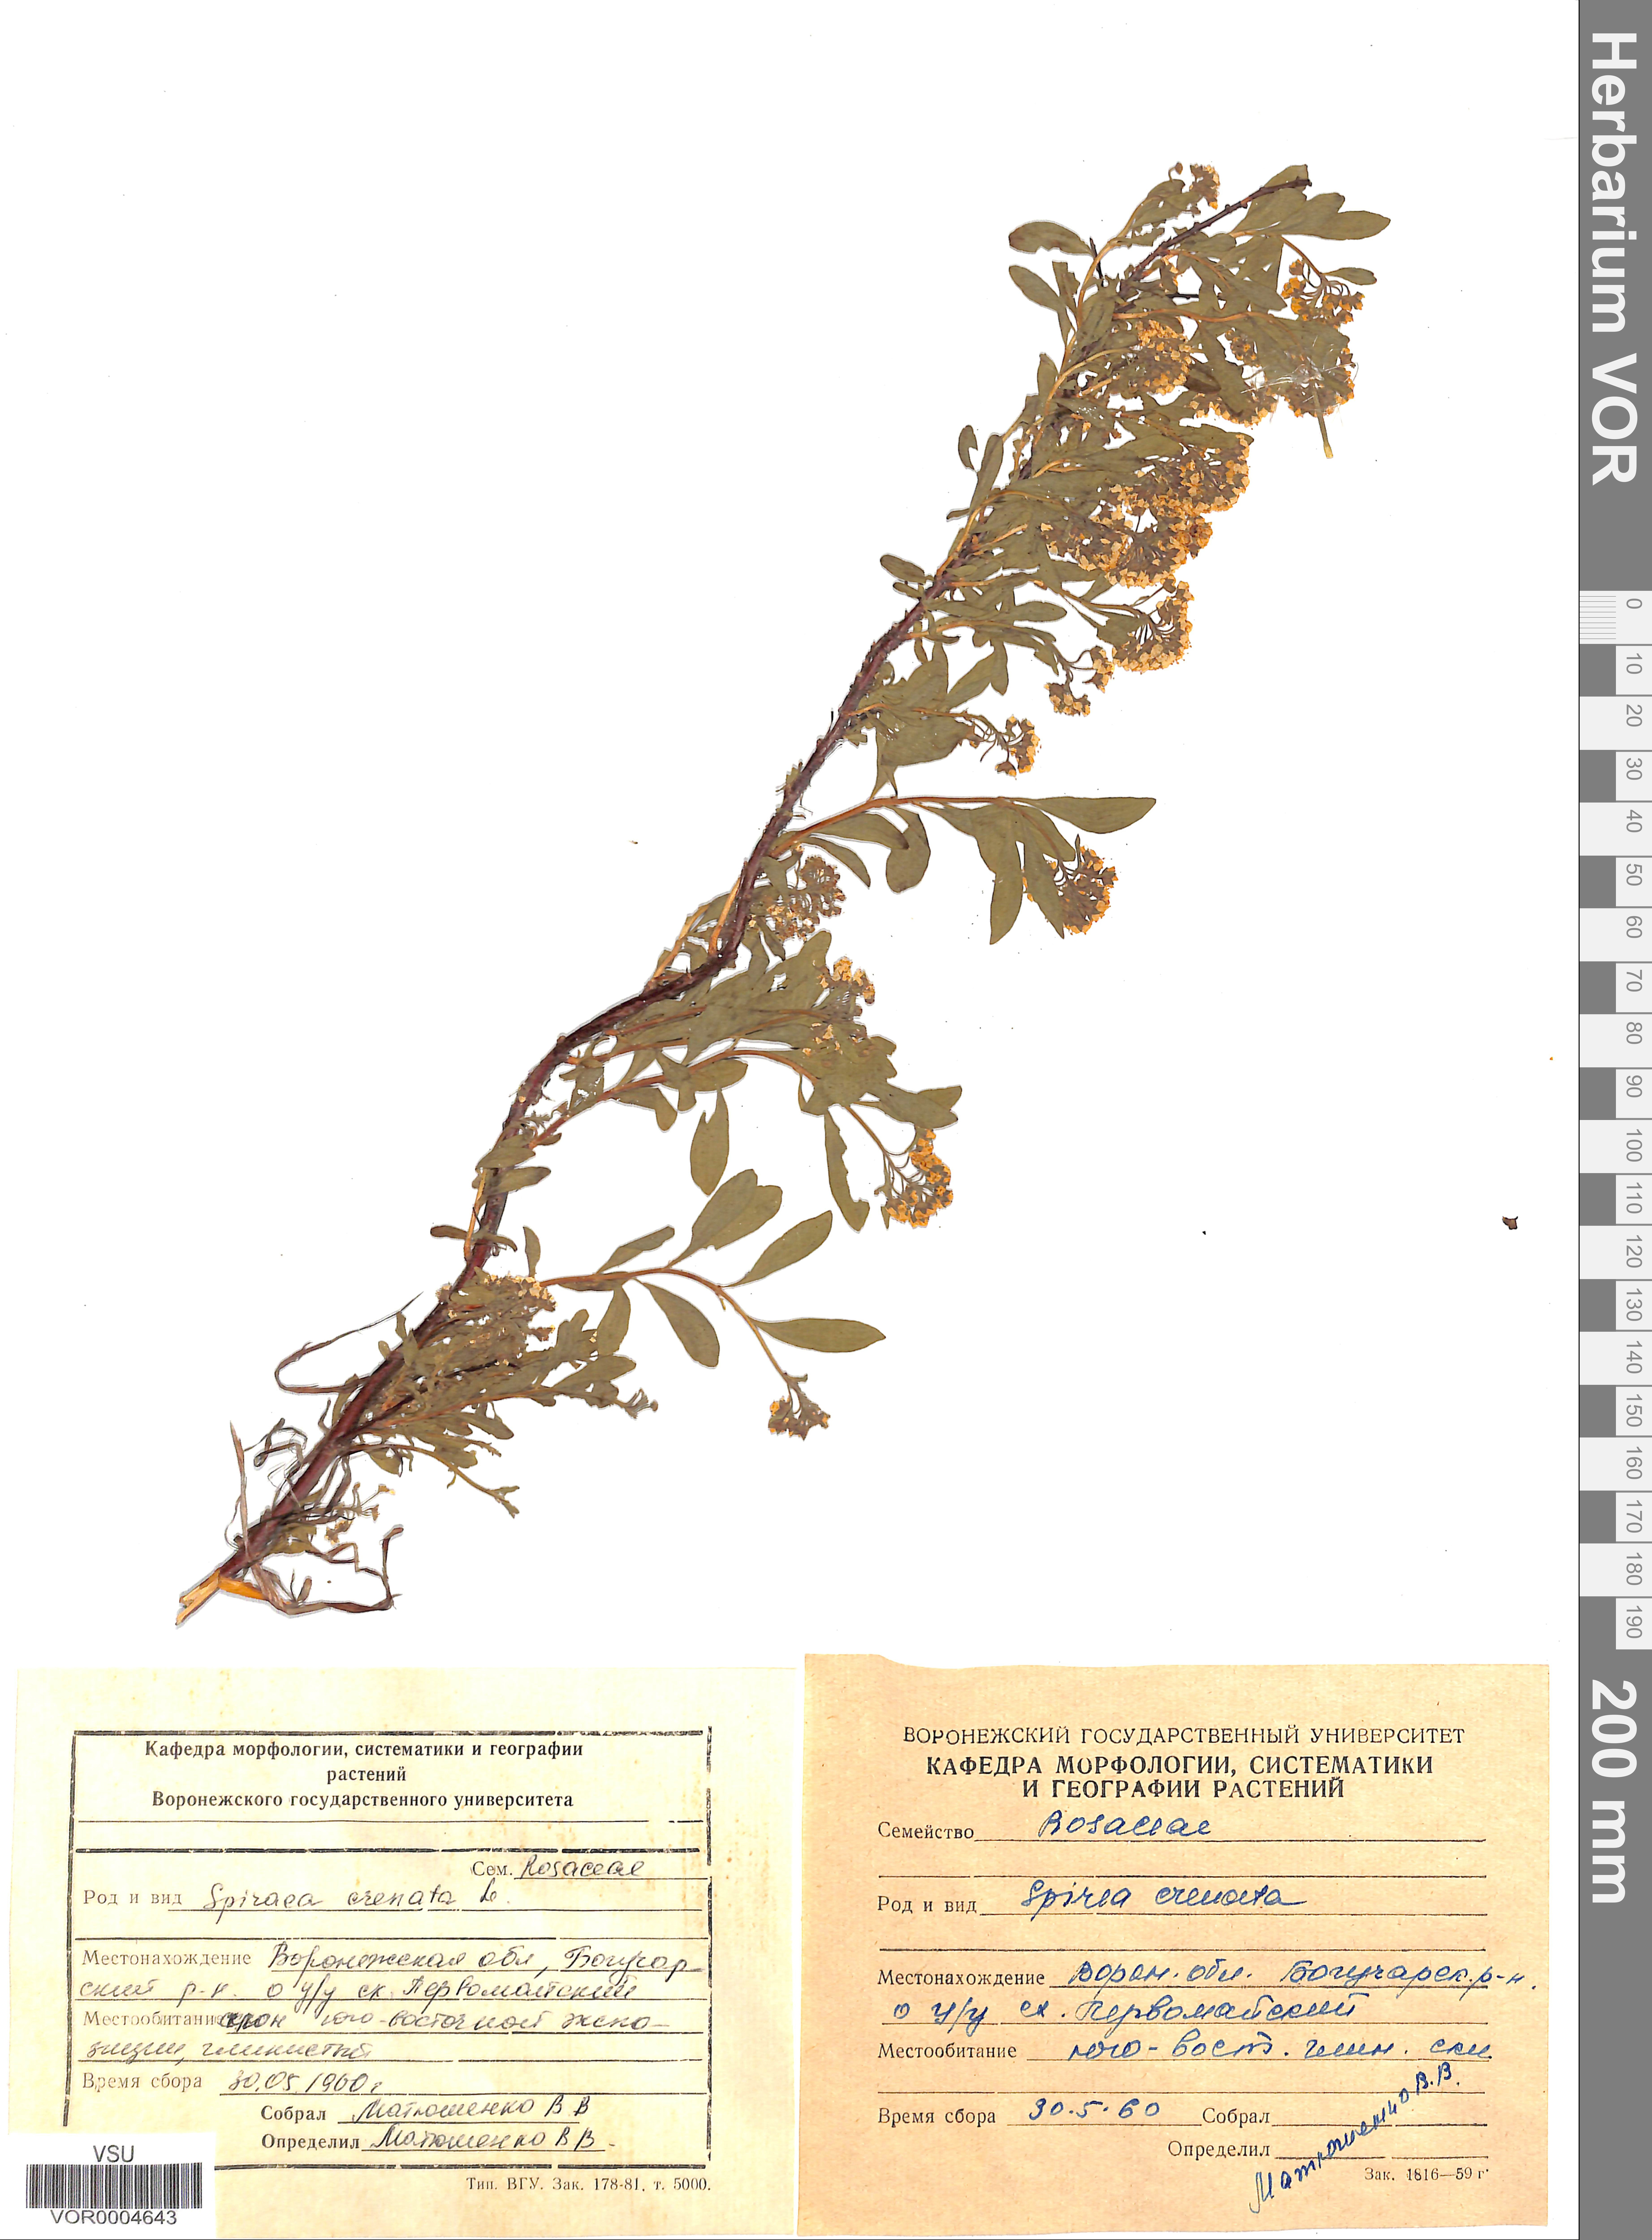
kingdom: Plantae
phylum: Tracheophyta
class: Magnoliopsida
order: Rosales
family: Rosaceae
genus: Spiraea
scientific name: Spiraea crenata
